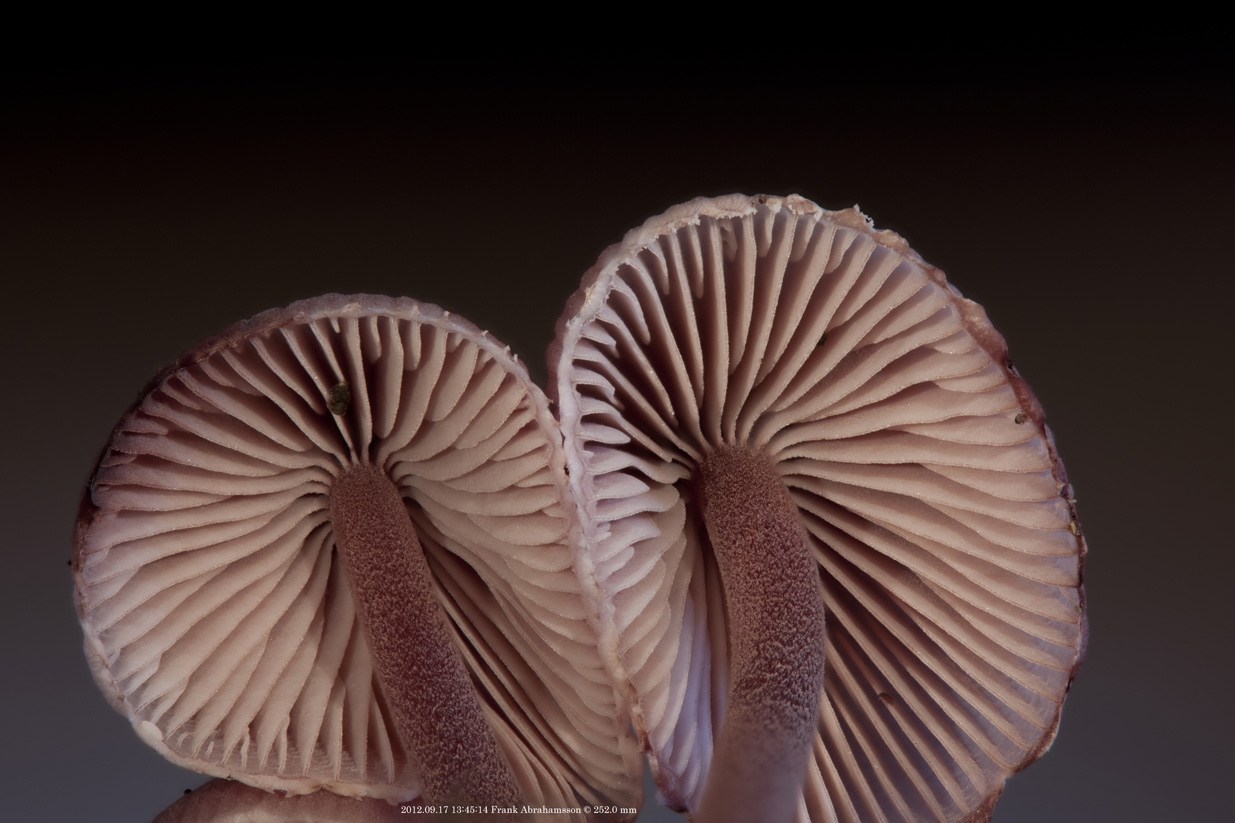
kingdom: Fungi
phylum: Basidiomycota
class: Agaricomycetes
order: Agaricales
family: Mycenaceae
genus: Mycena
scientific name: Mycena haematopus
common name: blødende huesvamp
